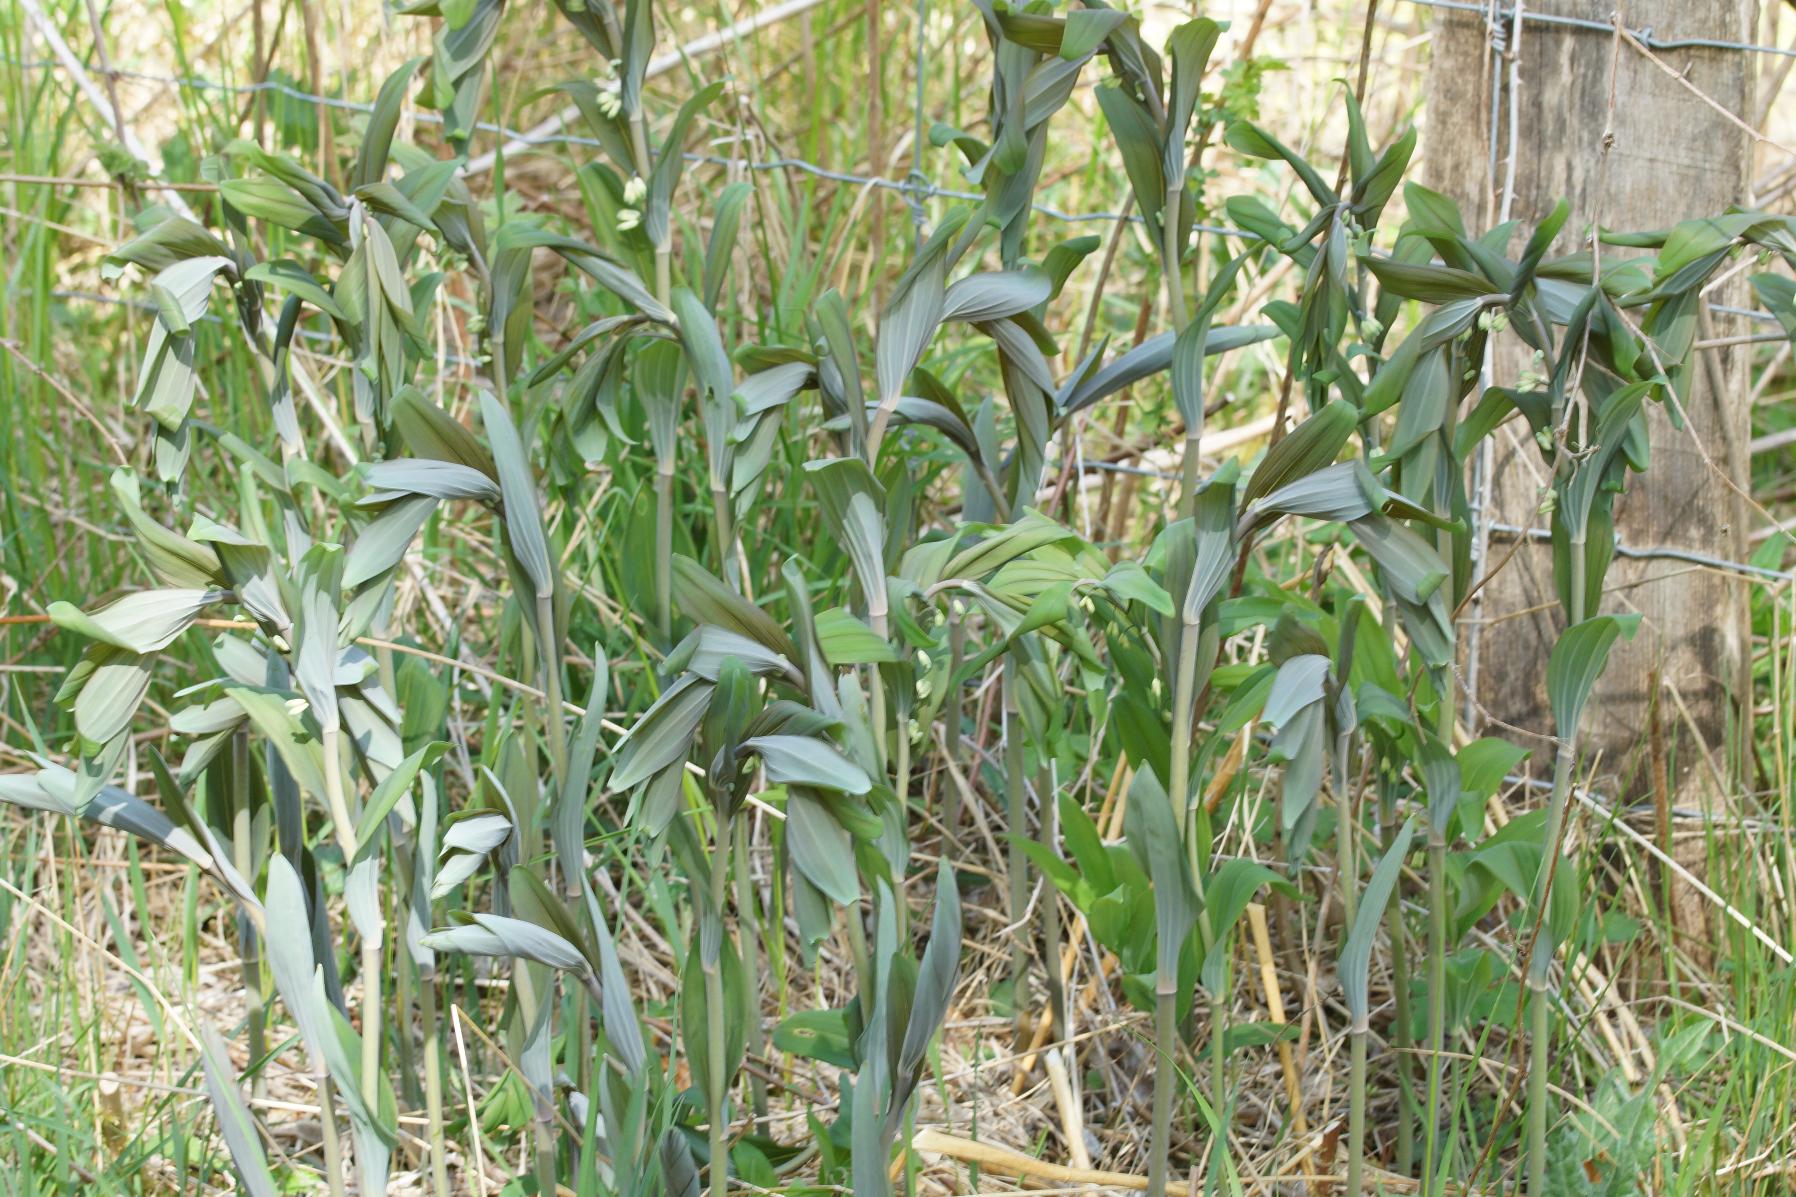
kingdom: Plantae
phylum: Tracheophyta
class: Liliopsida
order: Asparagales
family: Asparagaceae
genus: Polygonatum
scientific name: Polygonatum multiflorum
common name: Stor konval
